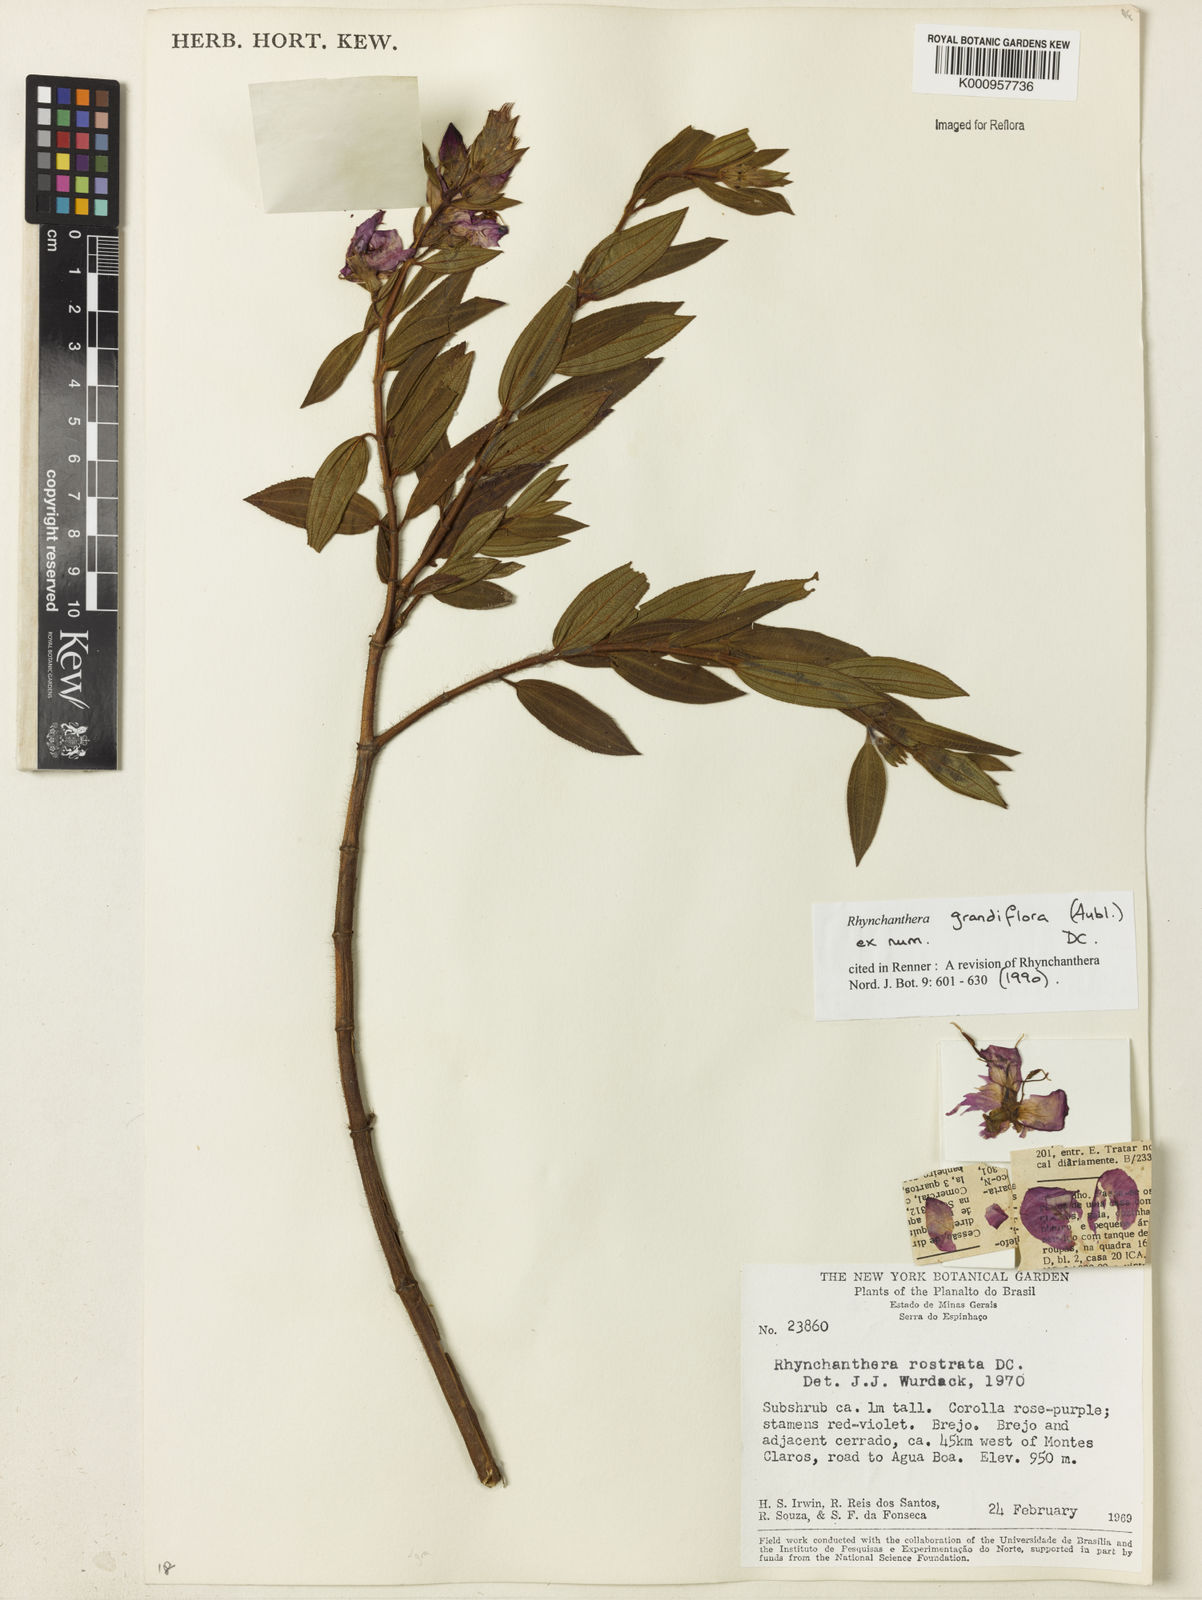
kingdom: Plantae
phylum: Tracheophyta
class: Magnoliopsida
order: Myrtales
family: Melastomataceae
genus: Rhynchanthera
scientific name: Rhynchanthera grandiflora
